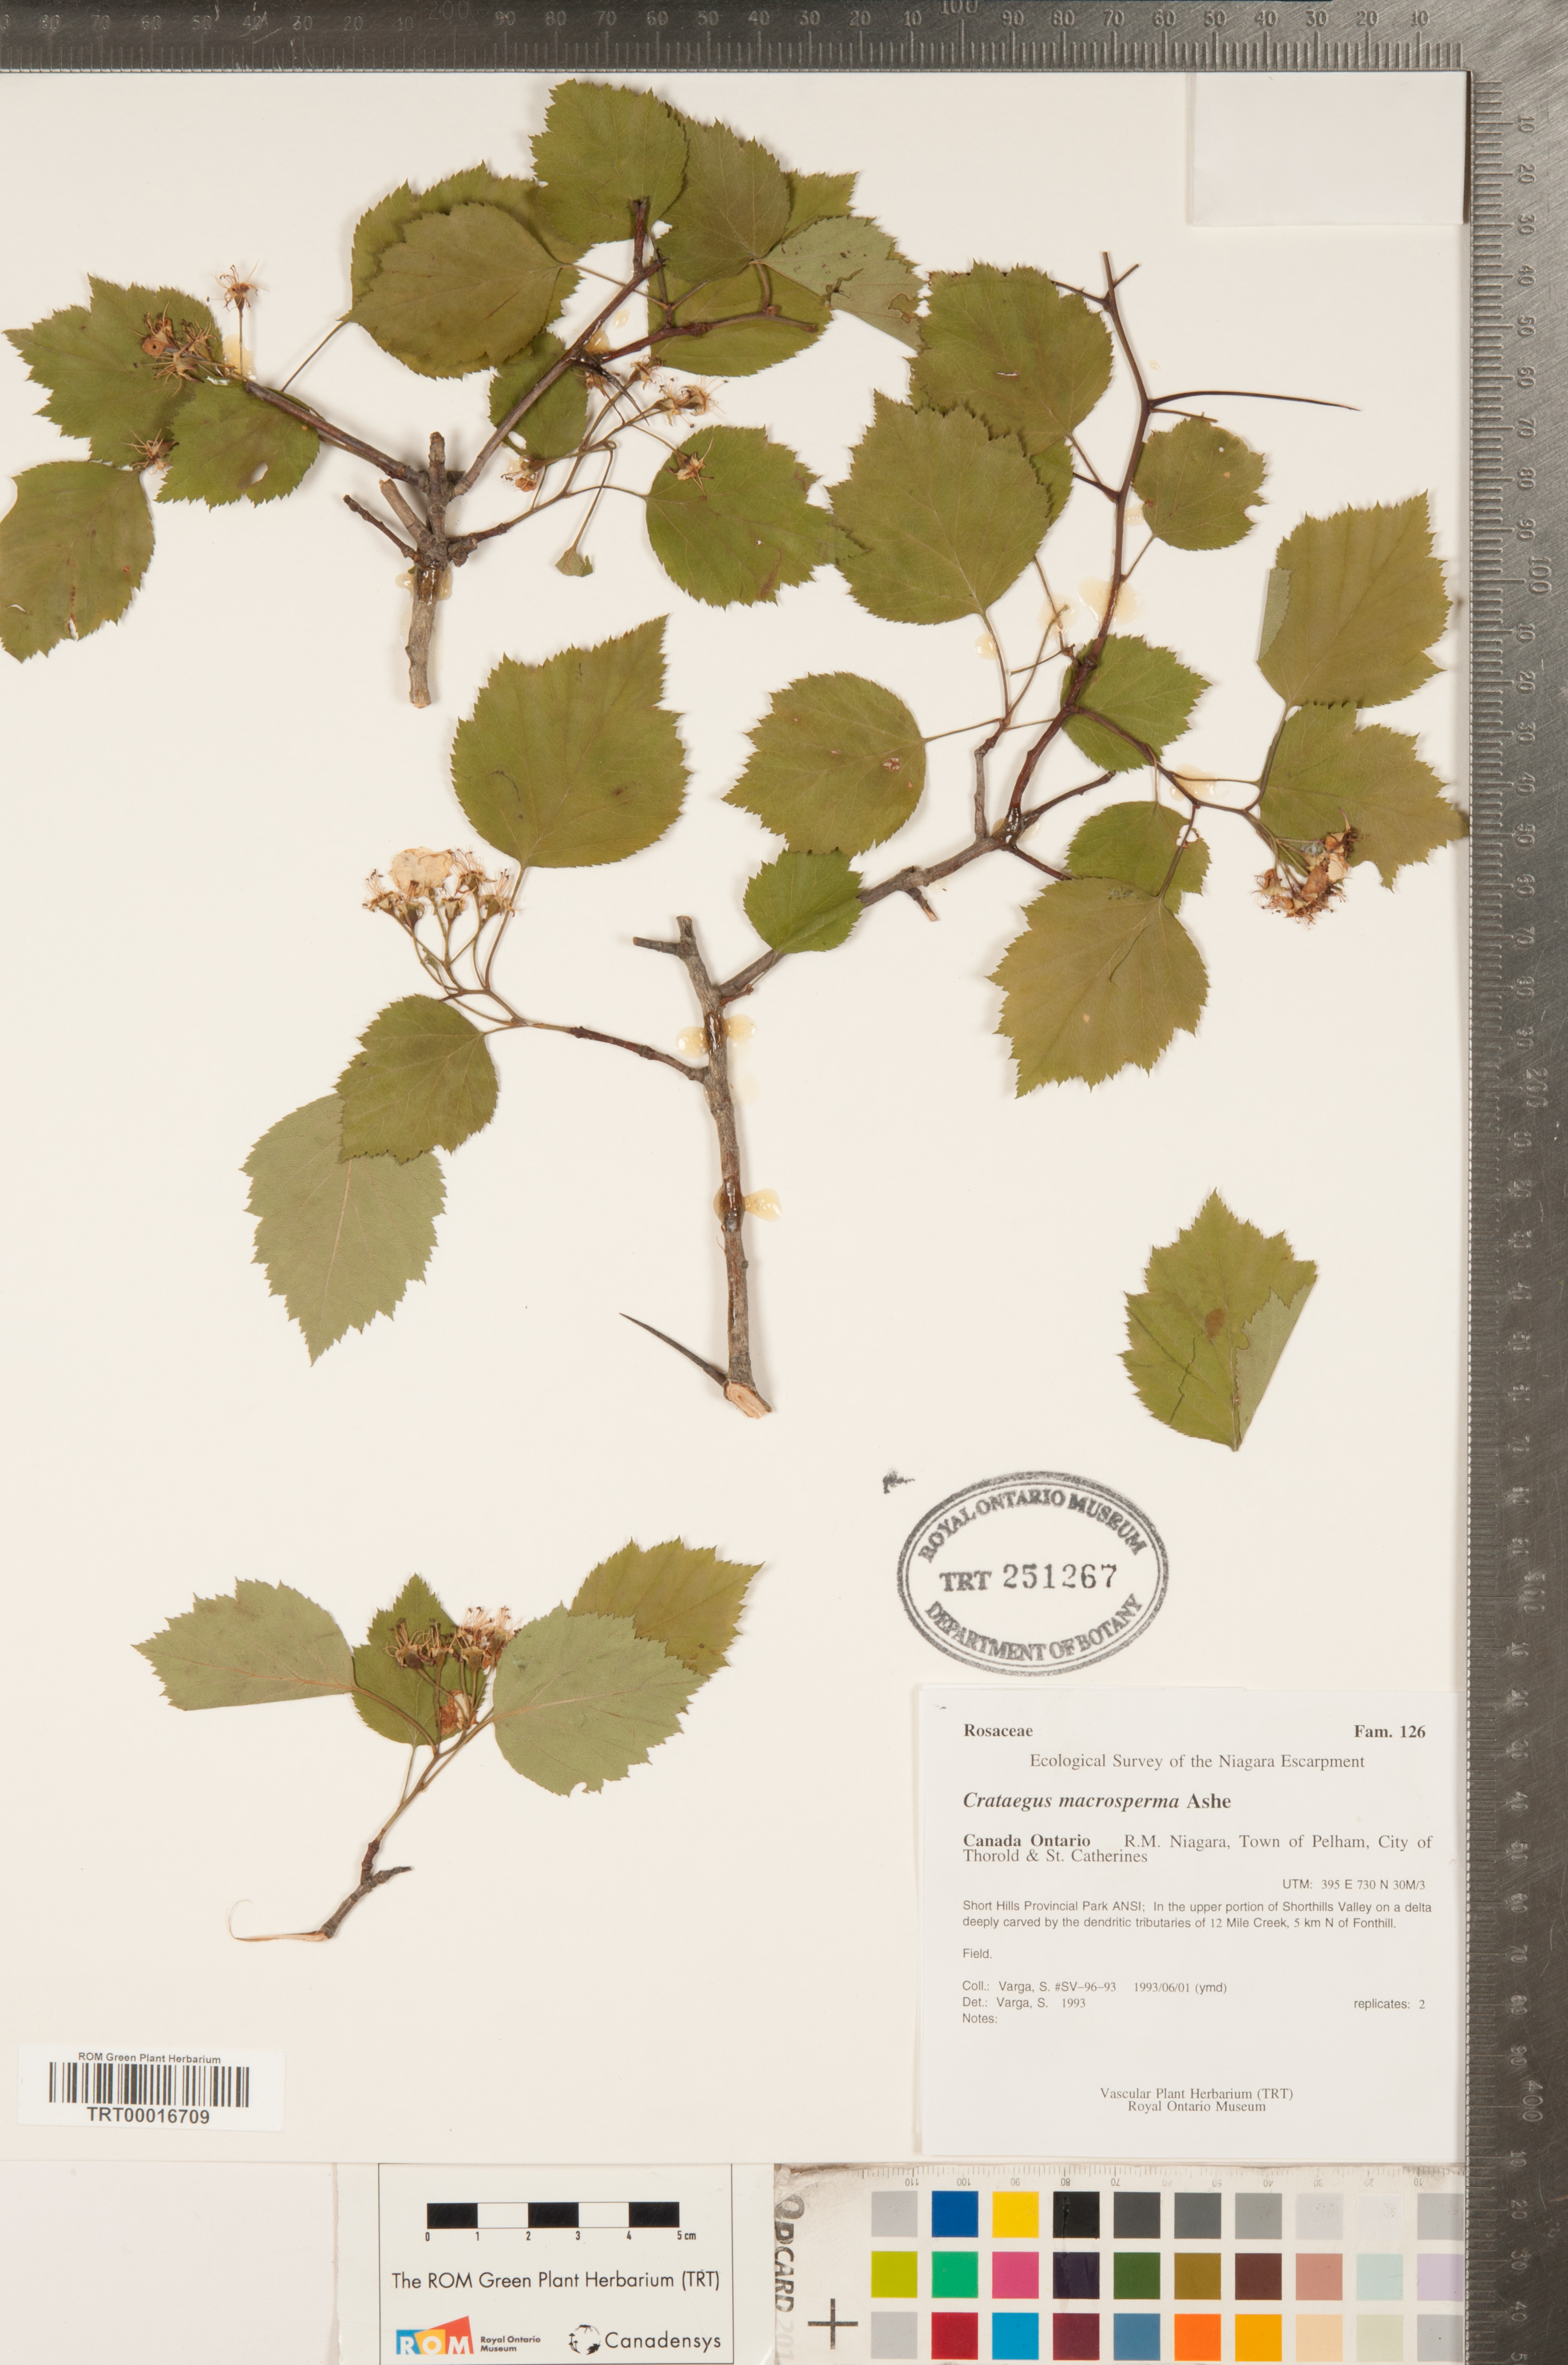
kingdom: Plantae
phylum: Tracheophyta
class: Magnoliopsida
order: Rosales
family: Rosaceae
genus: Crataegus
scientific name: Crataegus macrosperma
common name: Variable hawthorn
